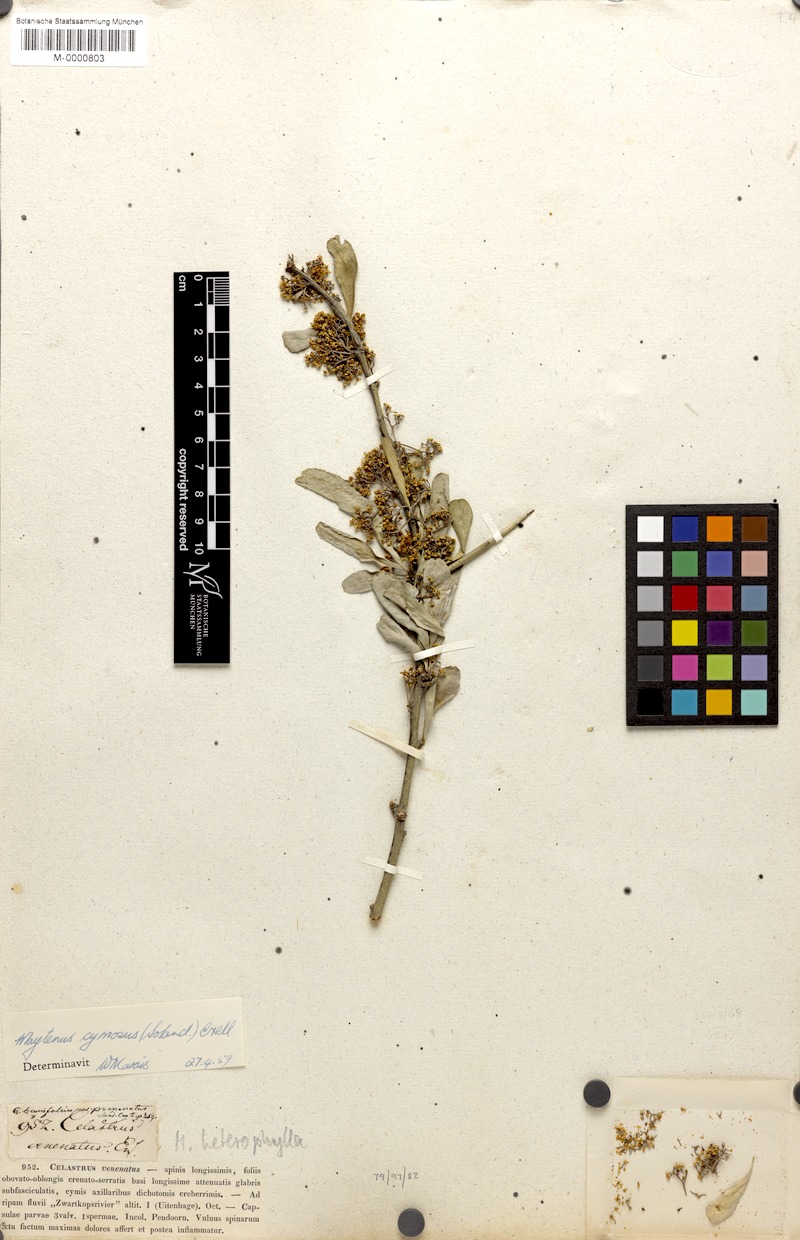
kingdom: Plantae
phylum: Tracheophyta
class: Magnoliopsida
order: Celastrales
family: Celastraceae
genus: Gymnosporia
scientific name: Gymnosporia buxifolia
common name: Common spike-thorn
